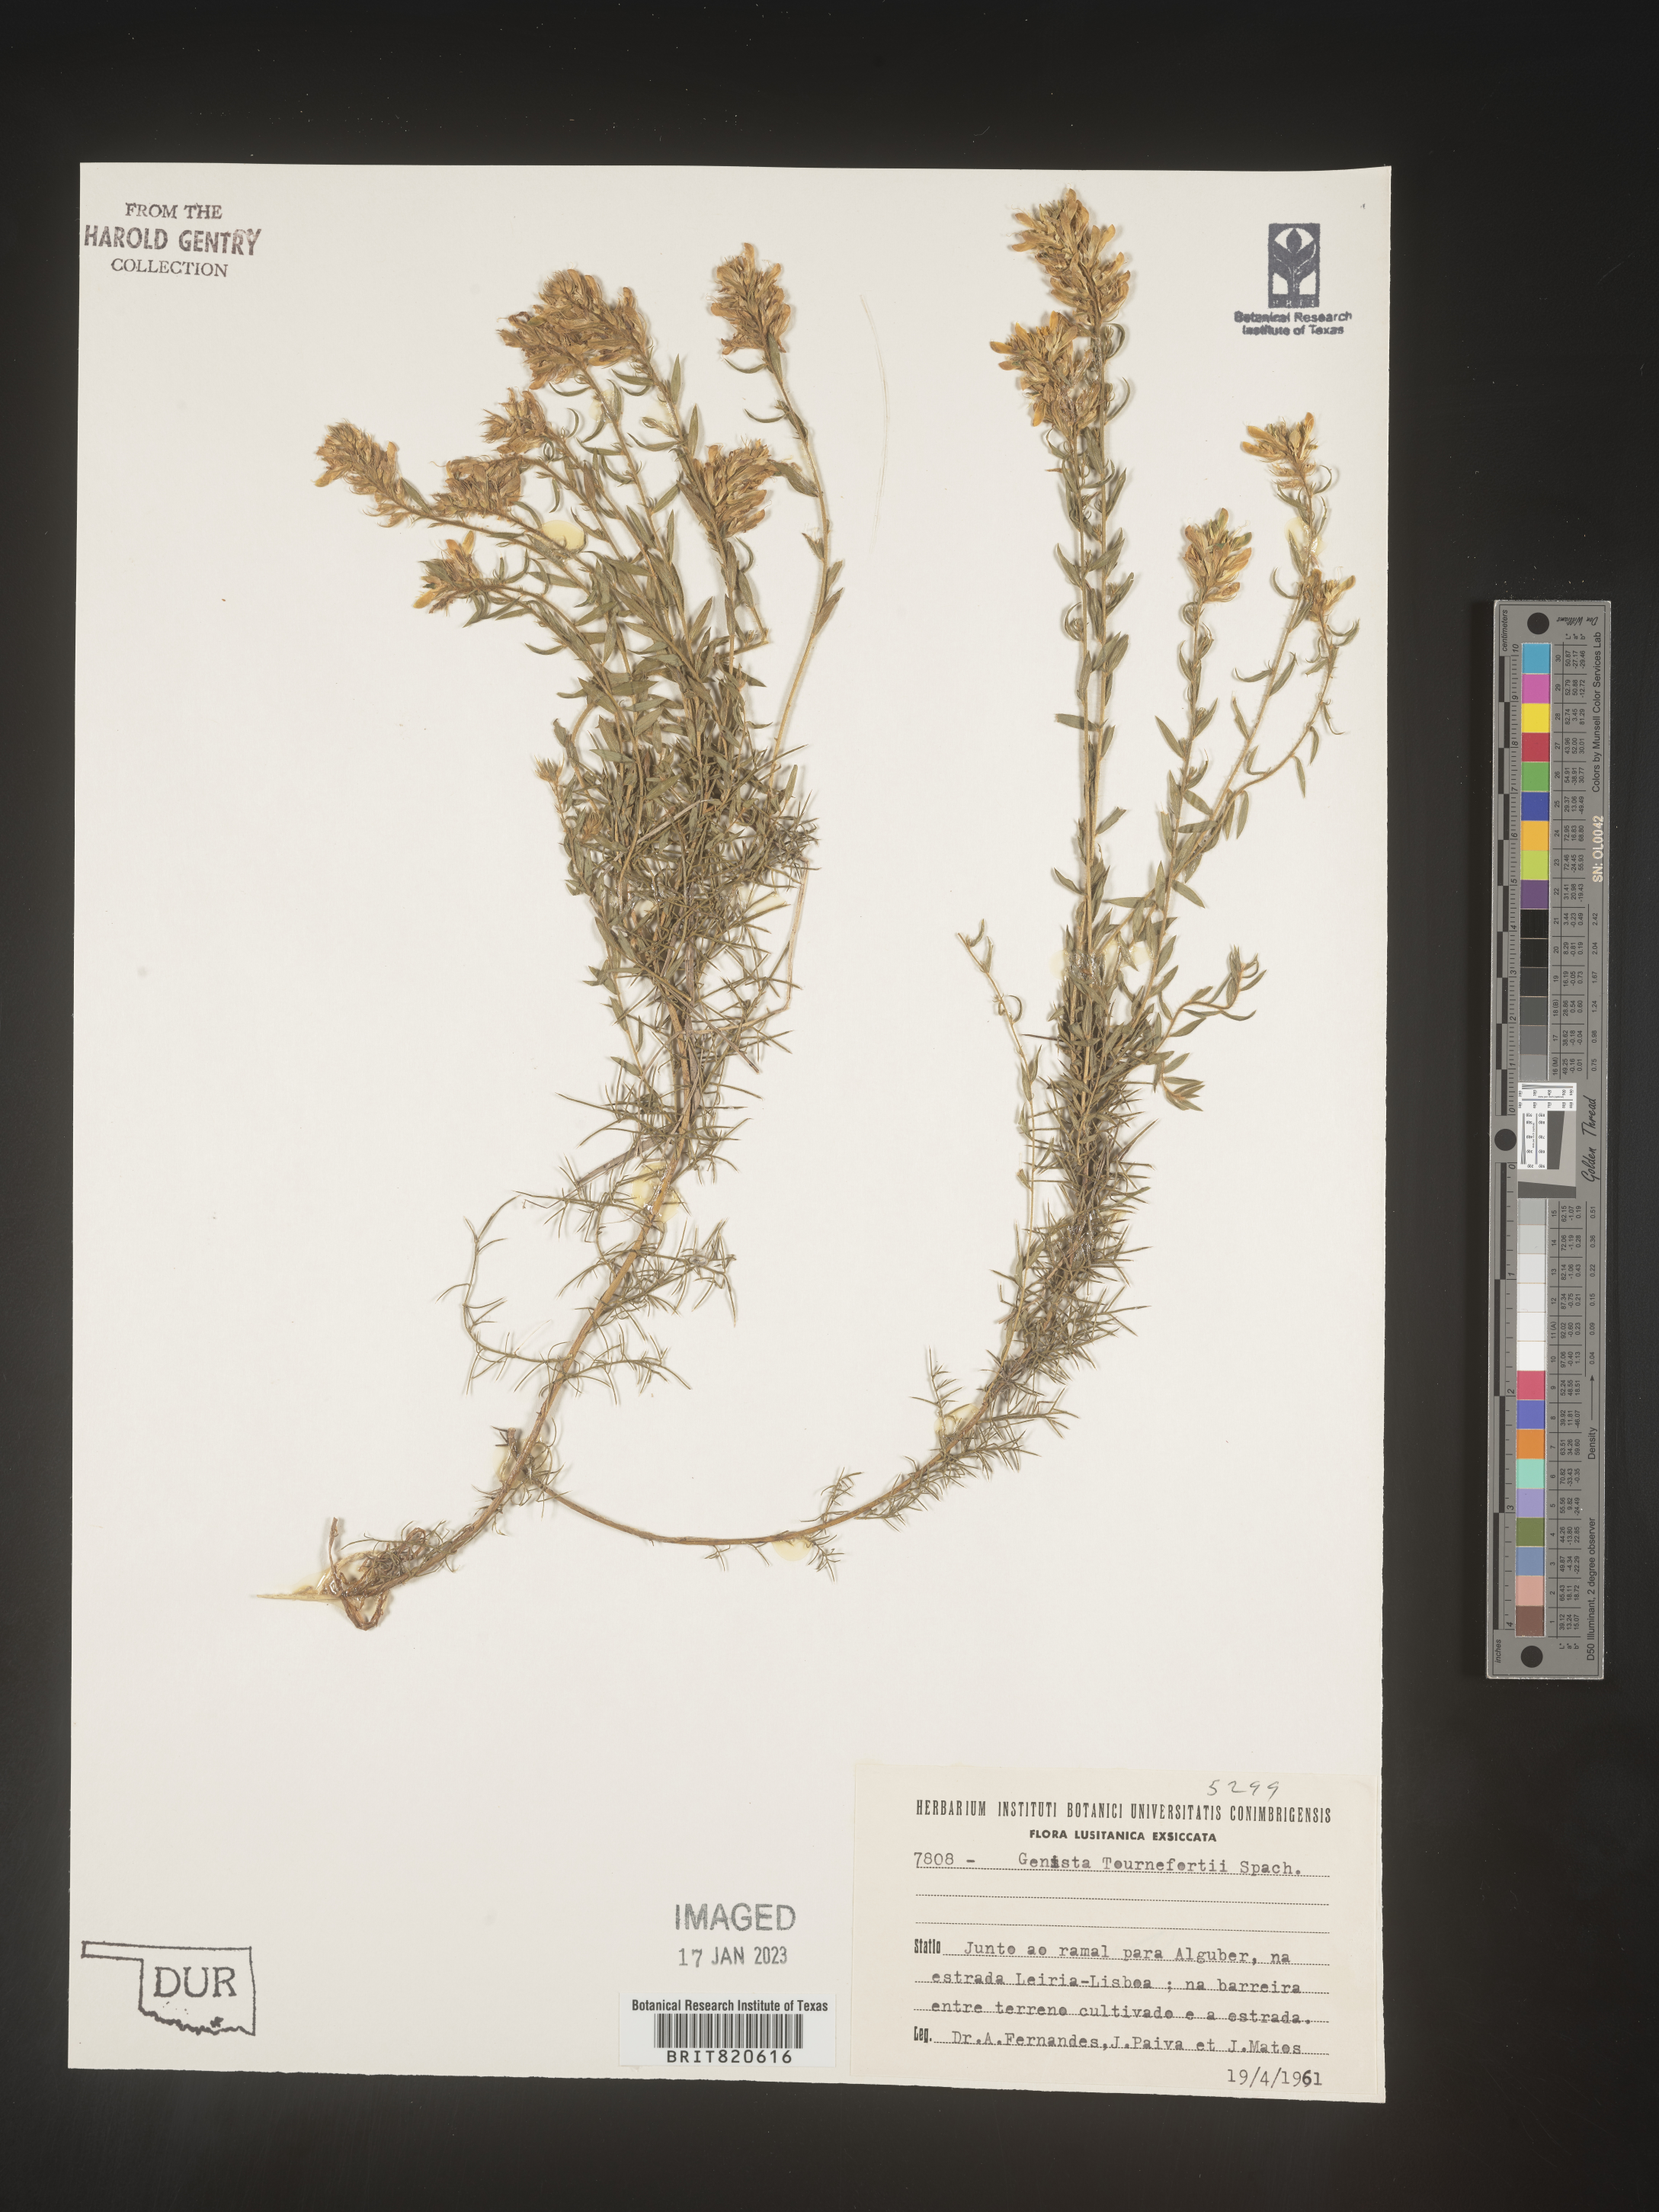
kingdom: Plantae
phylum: Tracheophyta
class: Magnoliopsida
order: Fabales
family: Fabaceae
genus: Genista
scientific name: Genista
